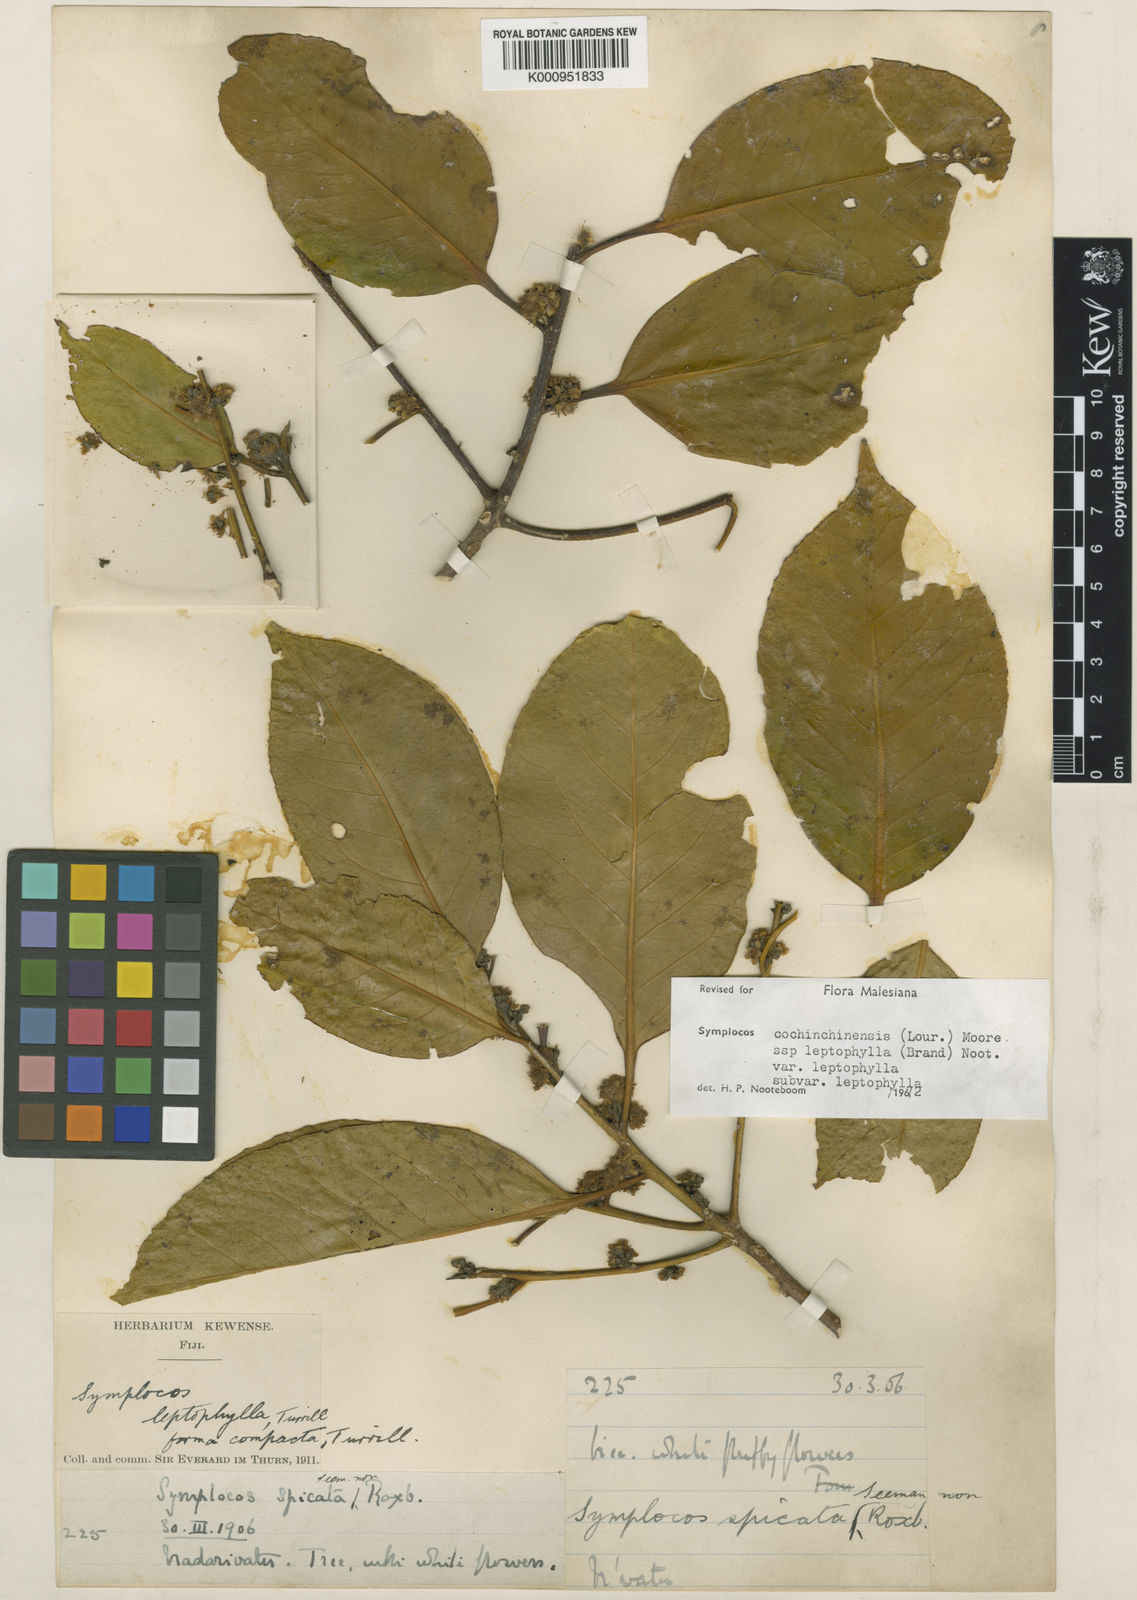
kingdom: Plantae
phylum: Tracheophyta
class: Magnoliopsida
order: Ericales
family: Symplocaceae
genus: Symplocos
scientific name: Symplocos leptophylla
